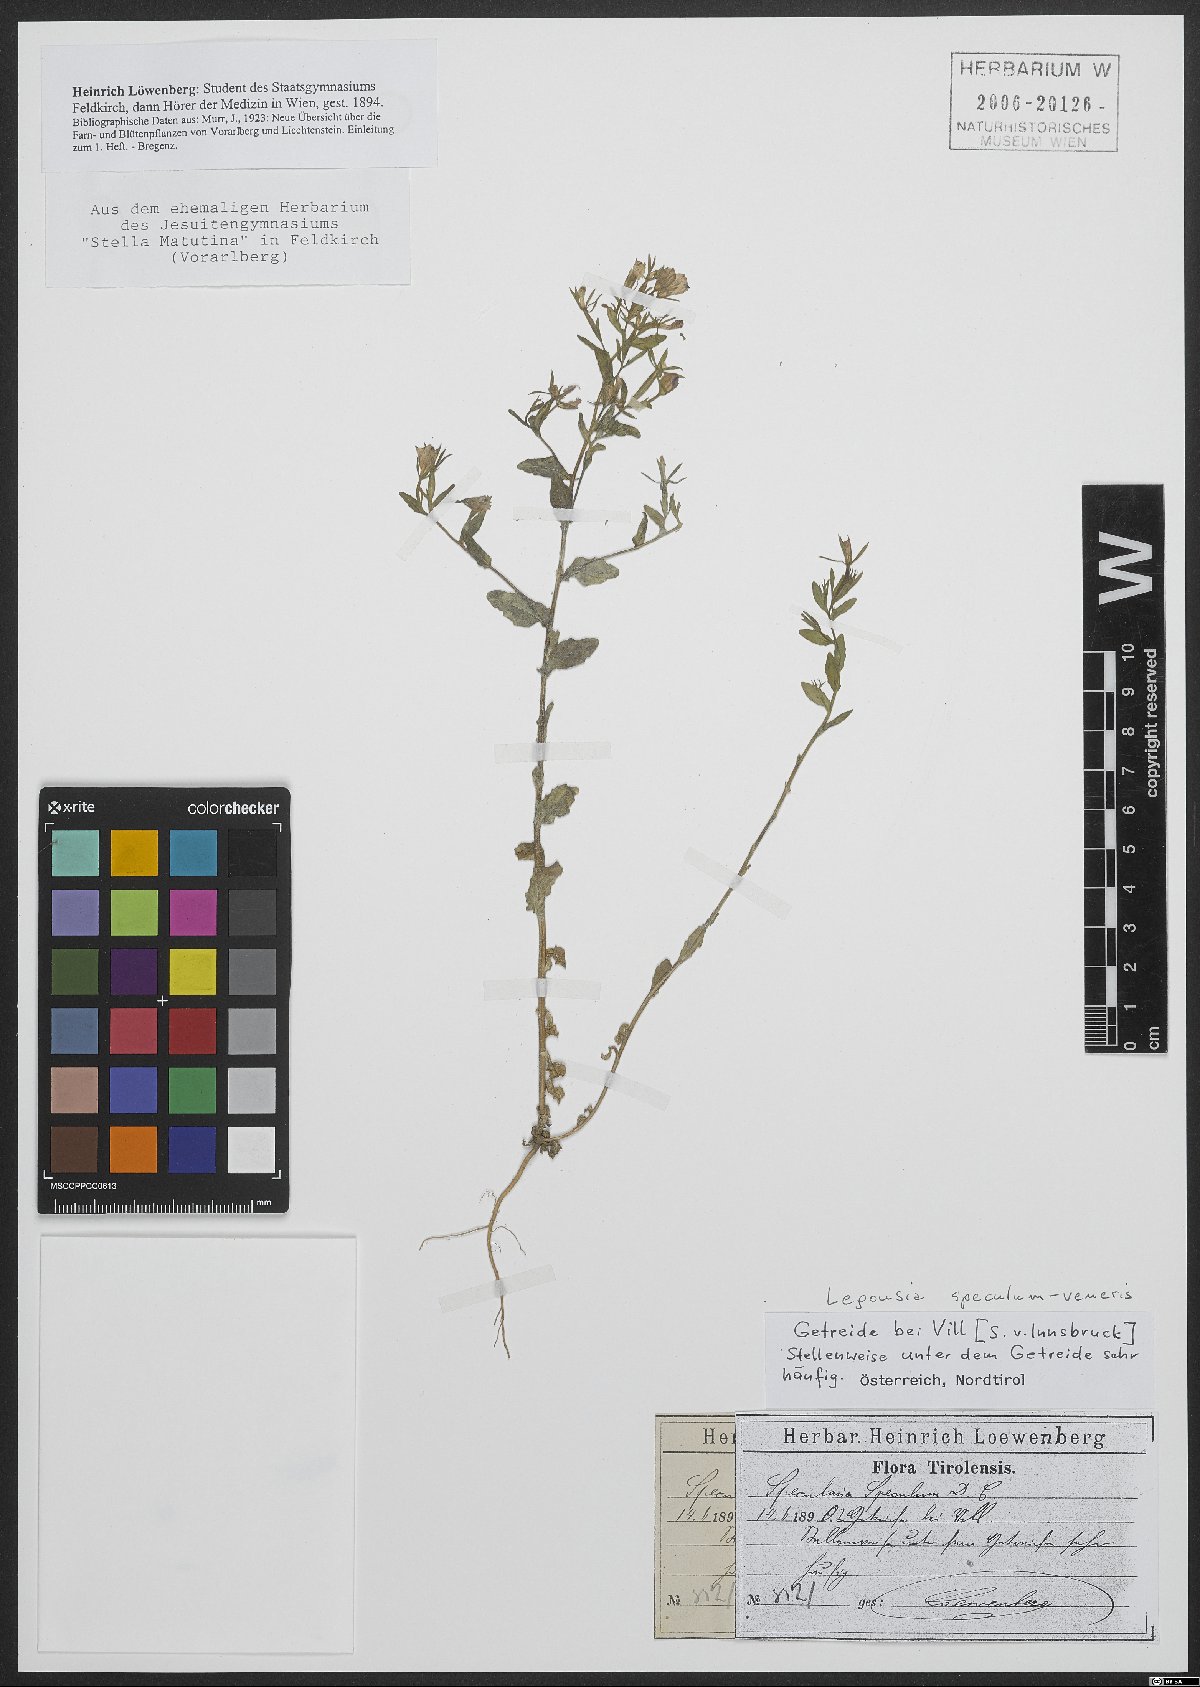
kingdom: Plantae
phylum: Tracheophyta
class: Magnoliopsida
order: Asterales
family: Campanulaceae
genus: Legousia
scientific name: Legousia speculum-veneris
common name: Large venus's-looking-glass
